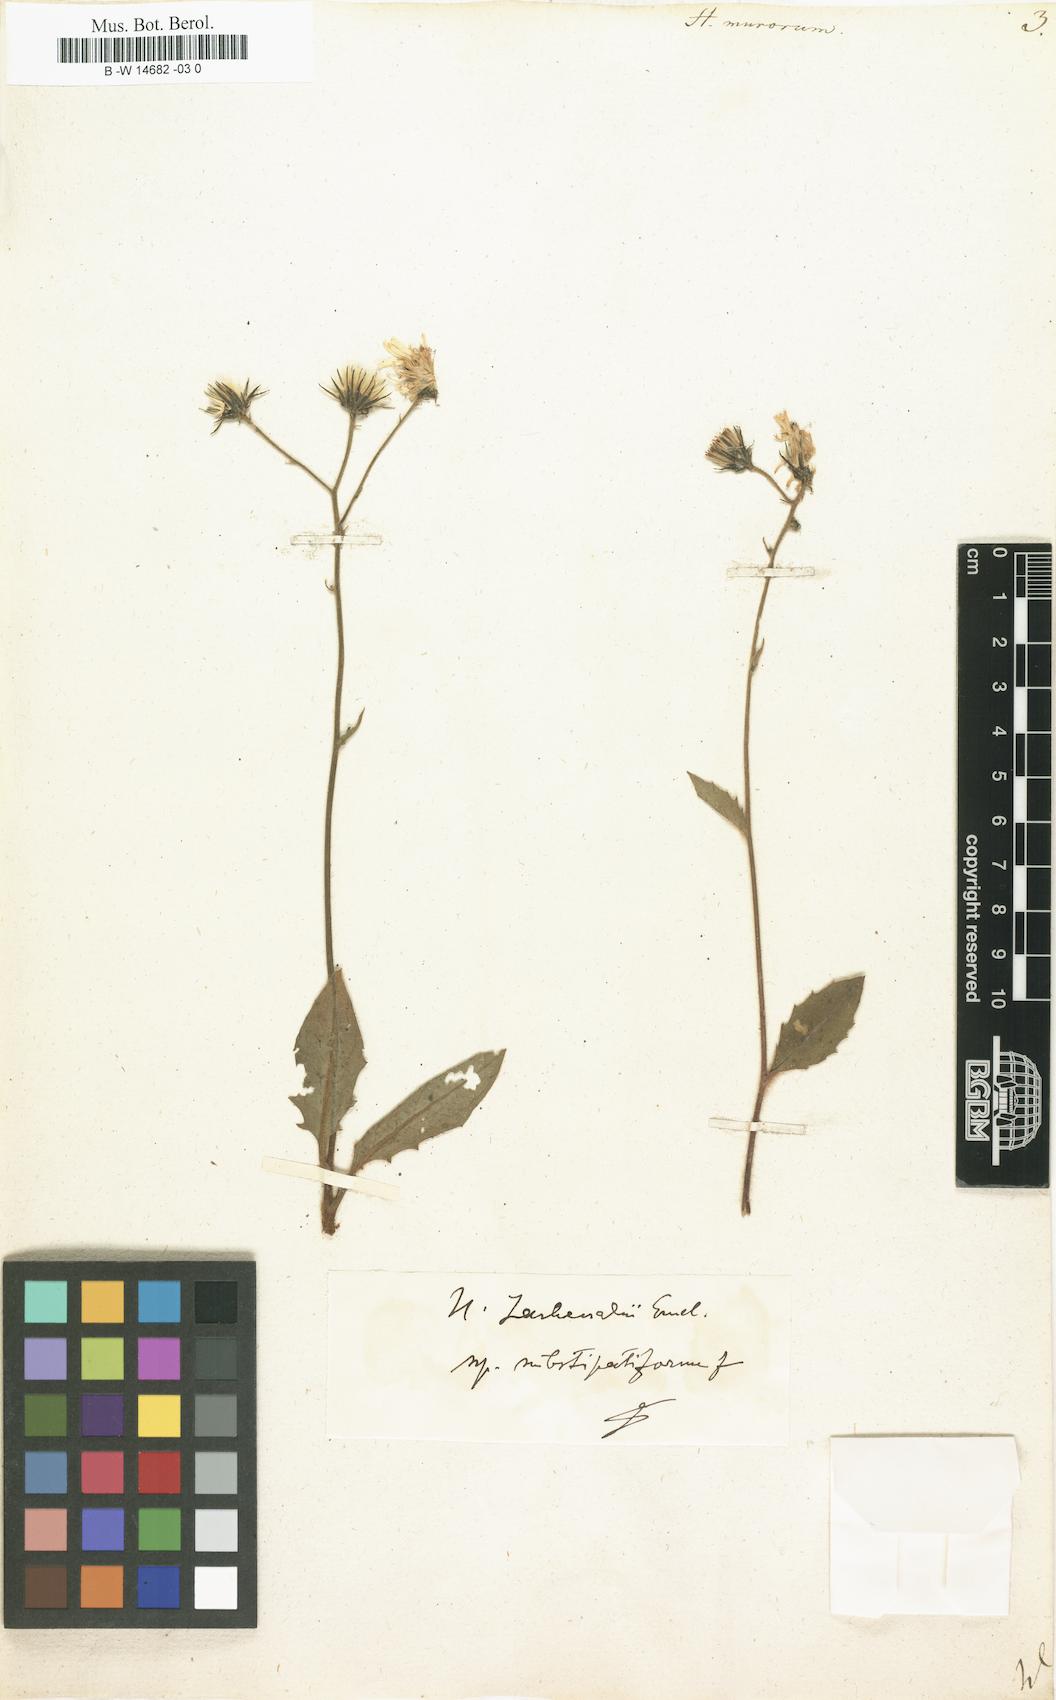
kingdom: Plantae
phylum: Tracheophyta
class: Magnoliopsida
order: Asterales
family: Asteraceae
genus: Hieracium
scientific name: Hieracium murorum
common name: Wall hawkweed
